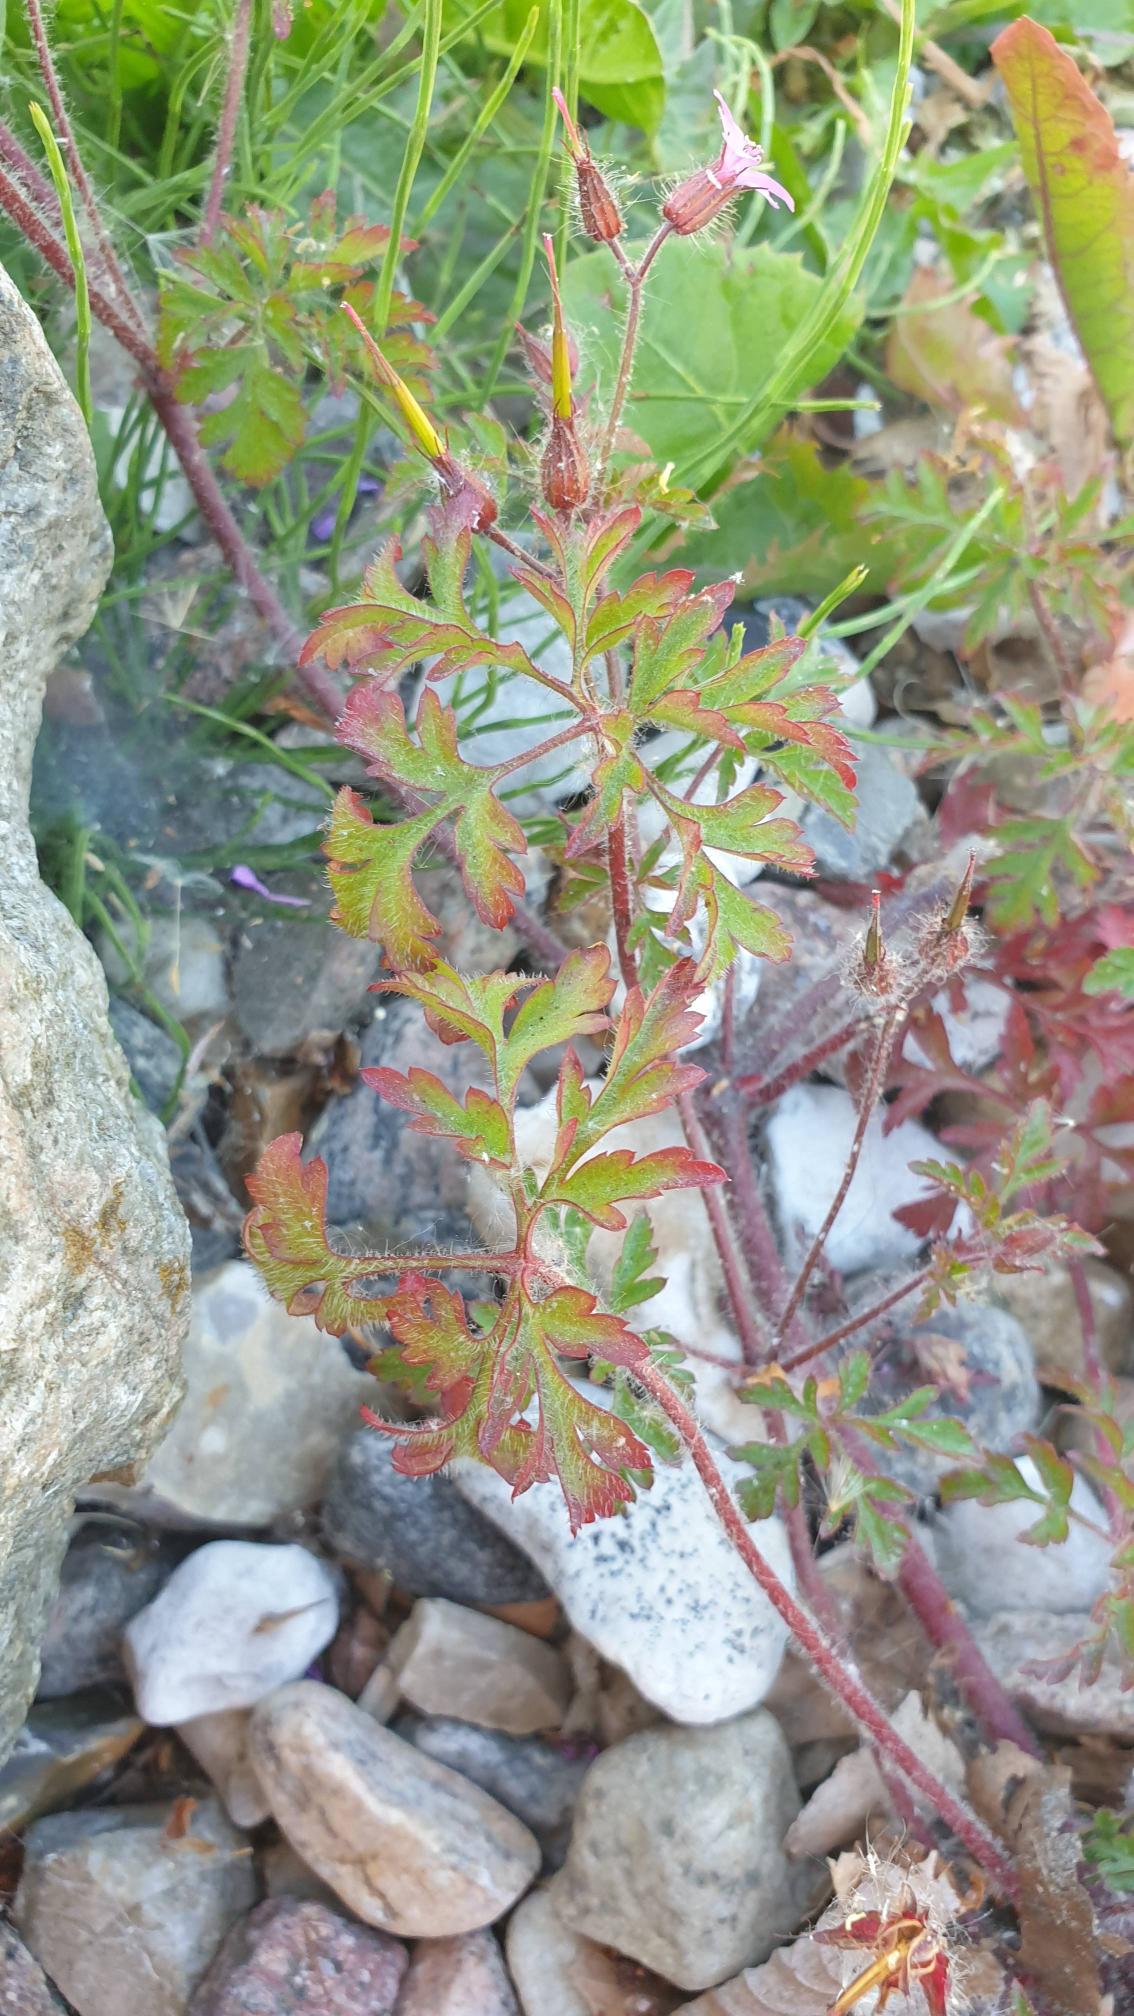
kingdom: Plantae
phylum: Tracheophyta
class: Magnoliopsida
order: Geraniales
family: Geraniaceae
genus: Geranium
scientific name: Geranium robertianum
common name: Stinkende storkenæb
